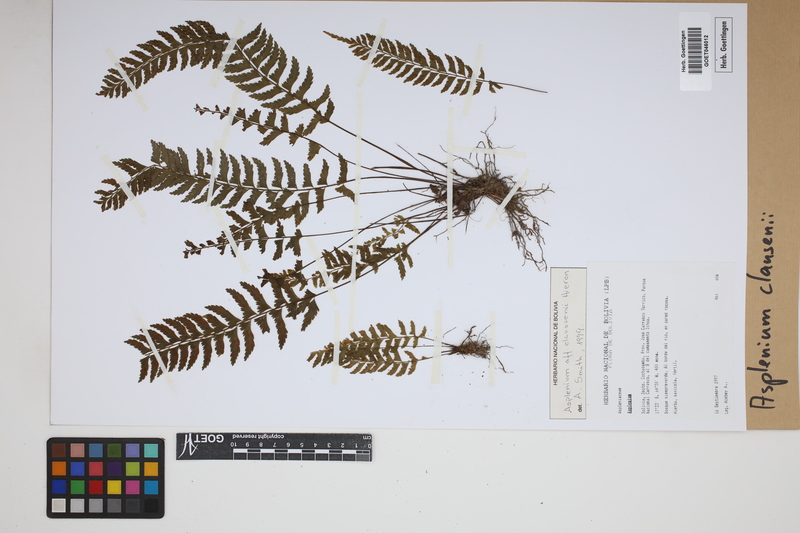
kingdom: Plantae
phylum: Tracheophyta
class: Polypodiopsida
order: Polypodiales
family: Aspleniaceae
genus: Asplenium
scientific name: Asplenium claussenii
